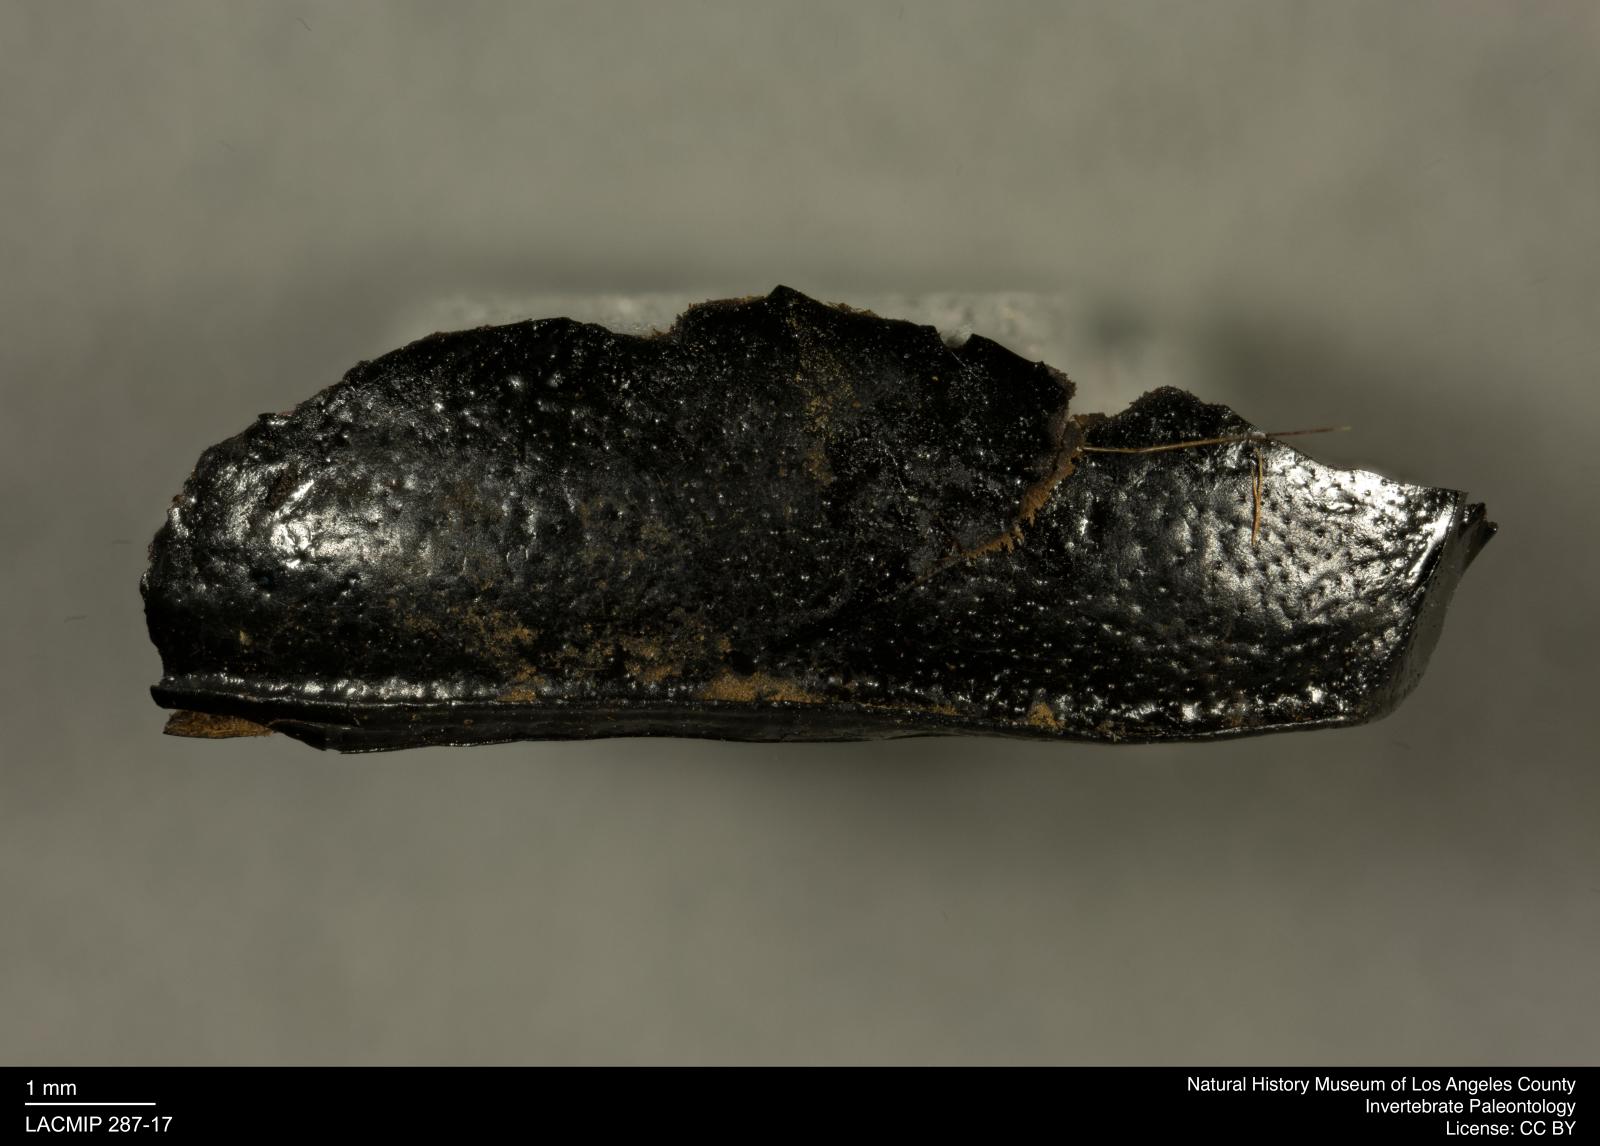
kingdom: Animalia
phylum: Arthropoda
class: Insecta
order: Coleoptera
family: Tenebrionidae
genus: Coniontis
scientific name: Coniontis abdominalis
